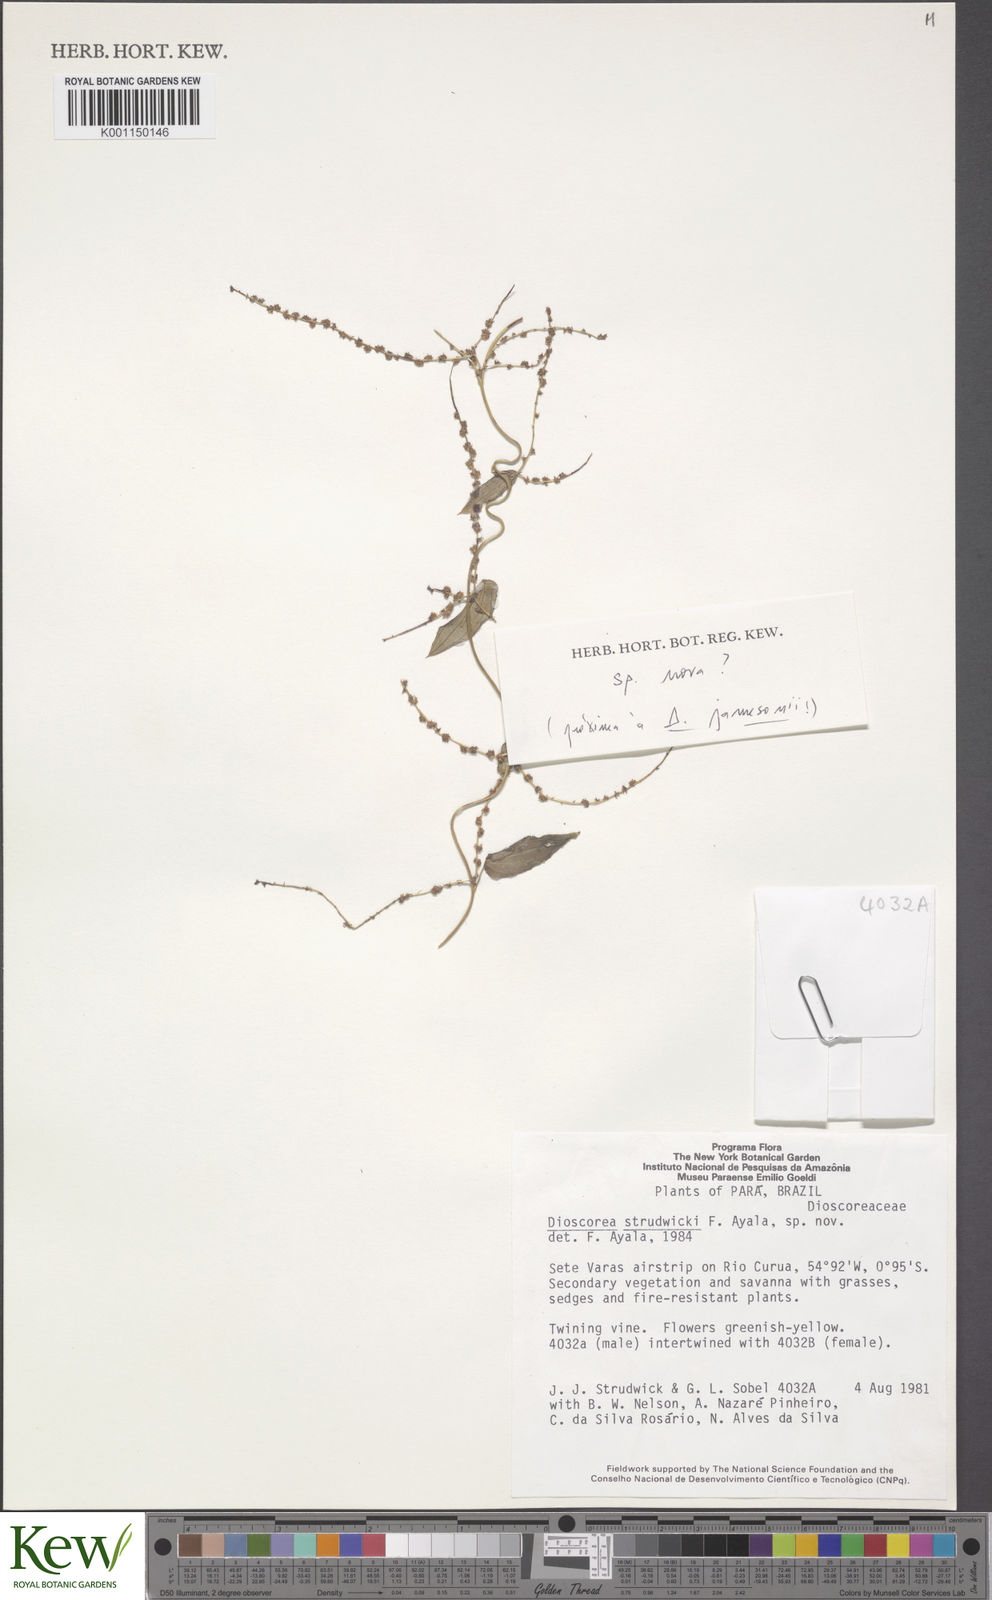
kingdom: Plantae
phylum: Tracheophyta
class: Liliopsida
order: Dioscoreales
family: Dioscoreaceae
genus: Dioscorea
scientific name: Dioscorea
